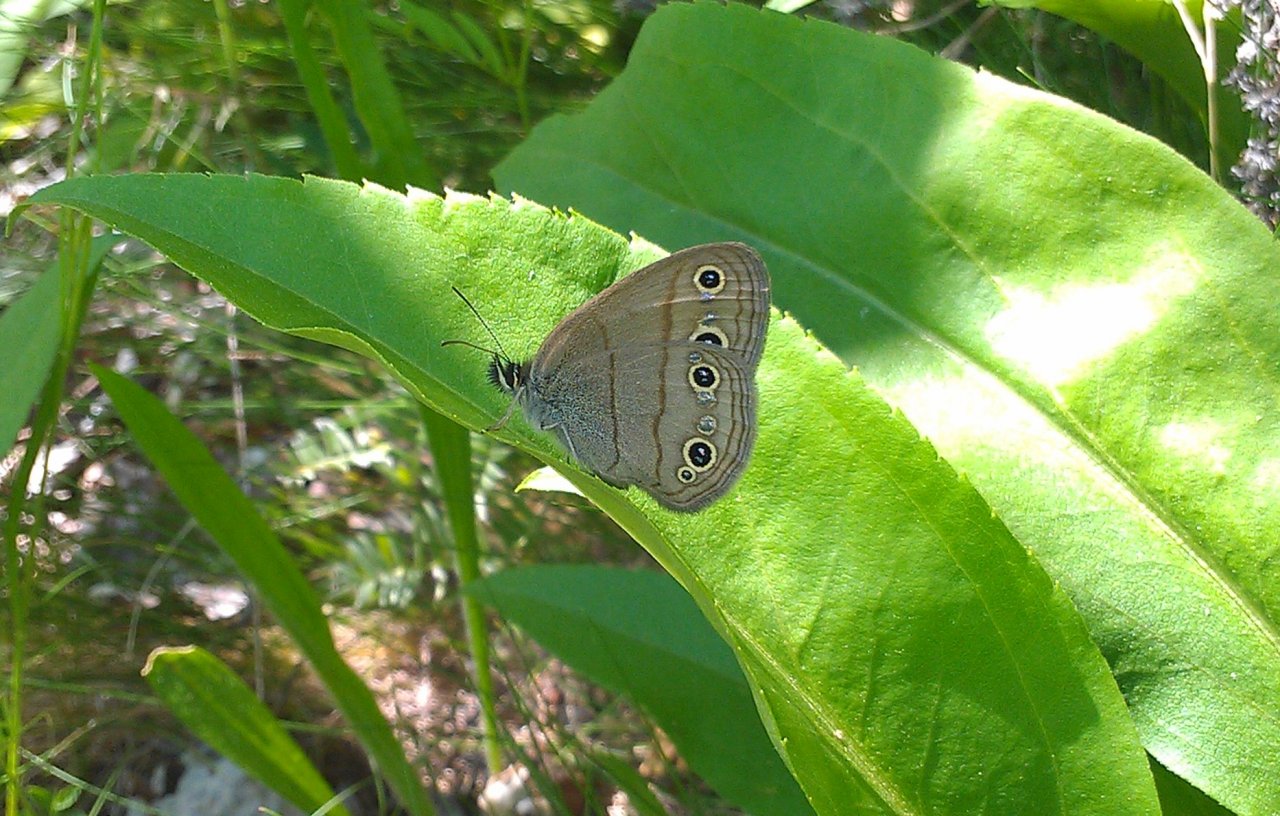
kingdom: Animalia
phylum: Arthropoda
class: Insecta
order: Lepidoptera
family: Nymphalidae
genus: Euptychia
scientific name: Euptychia cymela
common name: Little Wood Satyr
